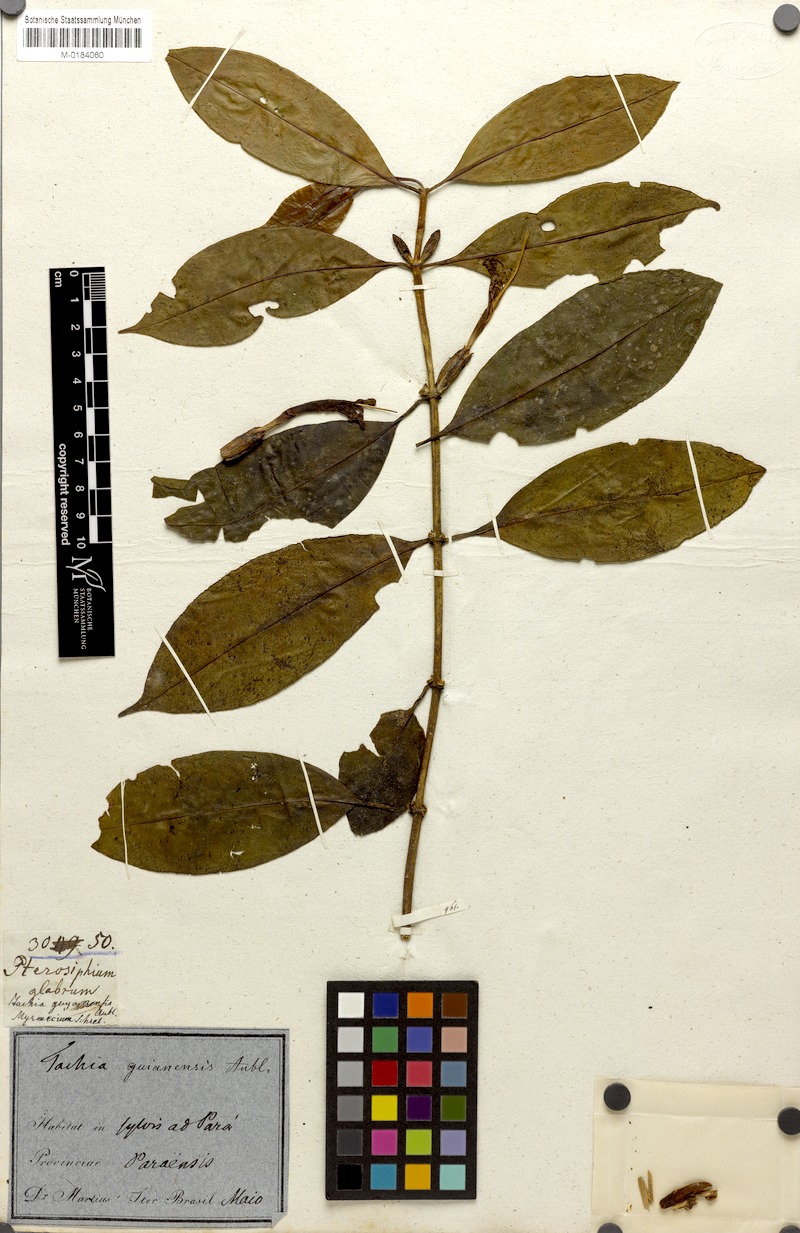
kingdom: Plantae
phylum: Tracheophyta
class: Magnoliopsida
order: Gentianales
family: Gentianaceae
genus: Tachia
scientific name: Tachia guianensis
